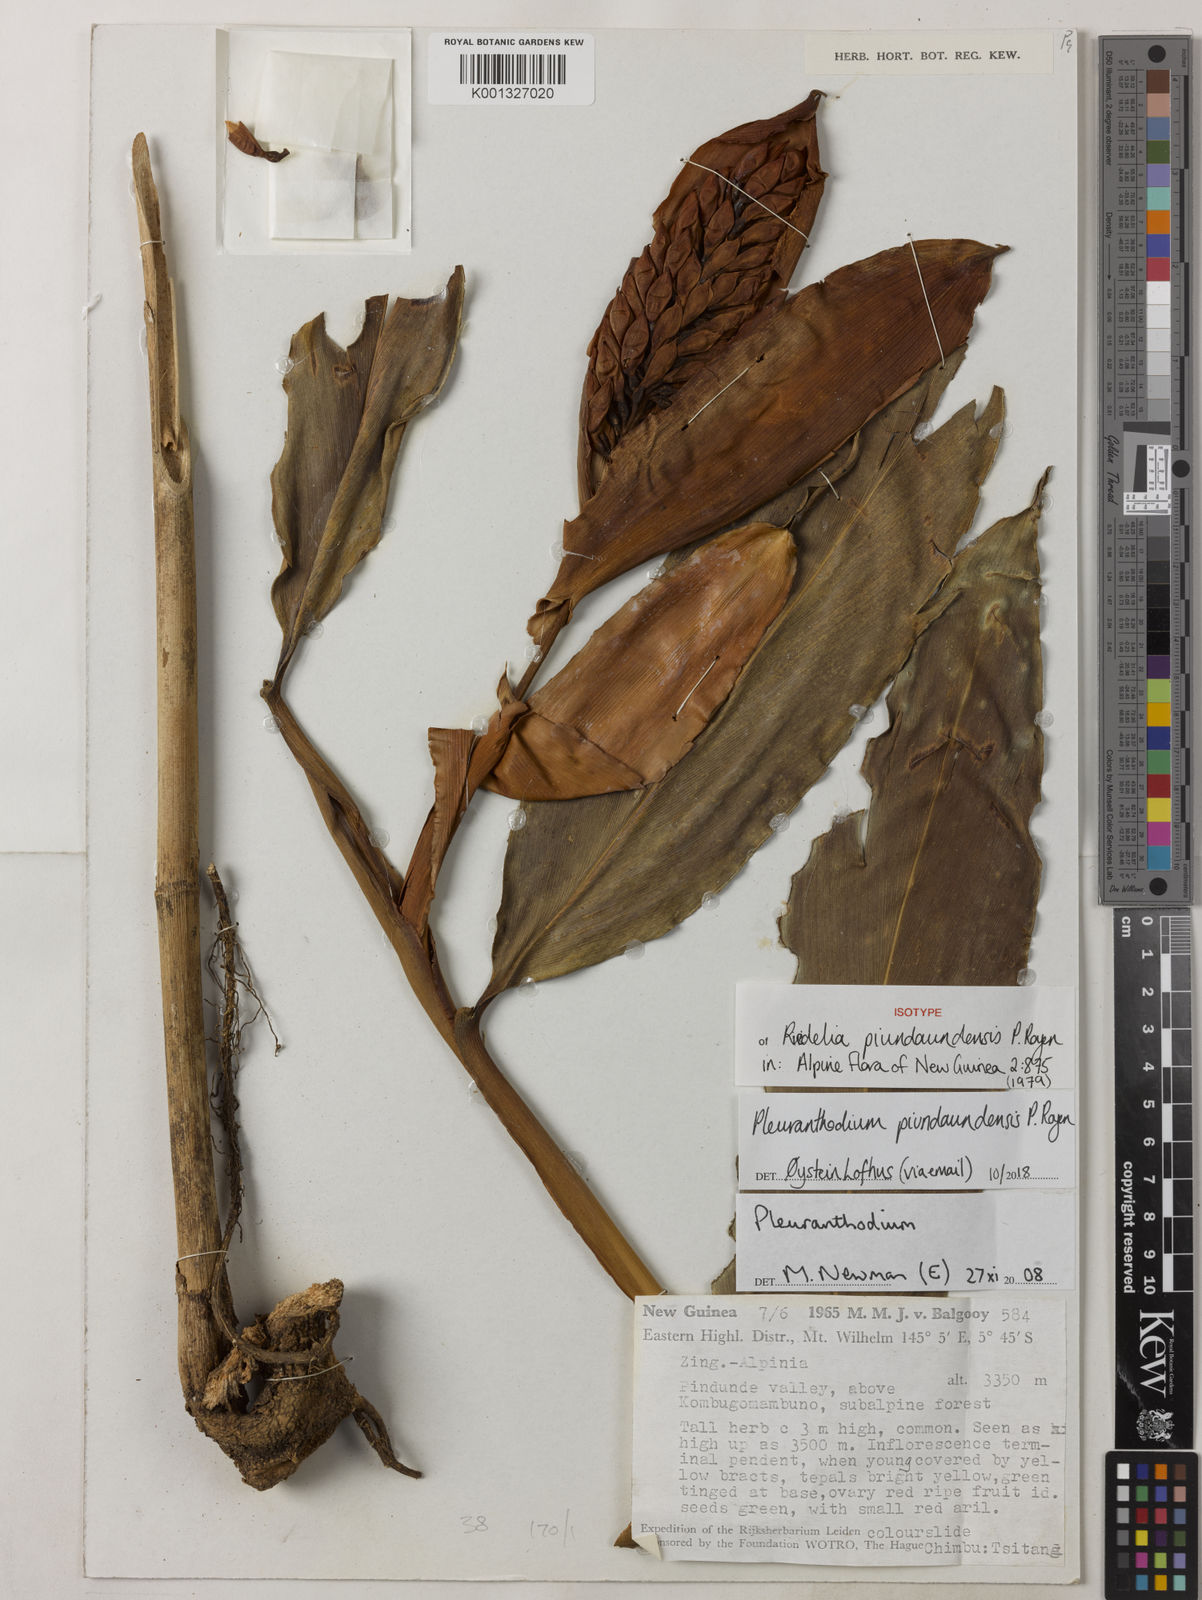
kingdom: Plantae
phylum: Tracheophyta
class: Liliopsida
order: Zingiberales
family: Zingiberaceae
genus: Pleuranthodium
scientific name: Pleuranthodium piundaundense
